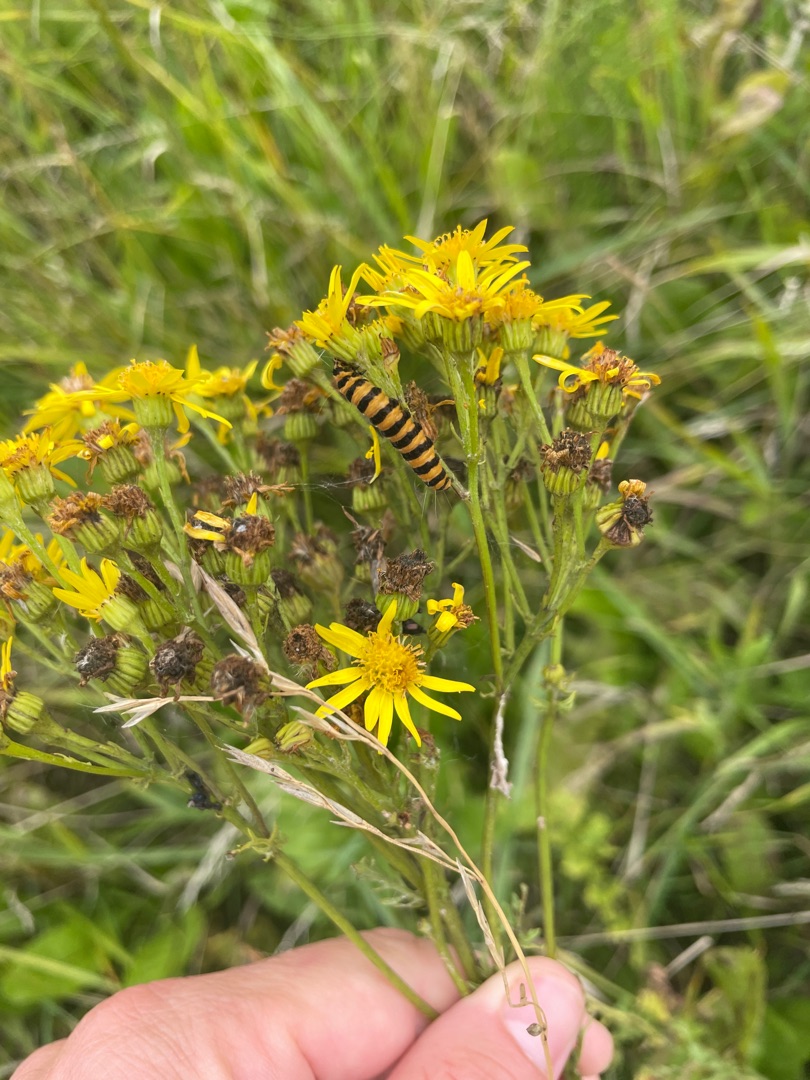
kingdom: Animalia
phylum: Arthropoda
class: Insecta
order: Lepidoptera
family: Erebidae
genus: Tyria
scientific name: Tyria jacobaeae
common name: Blodplet
